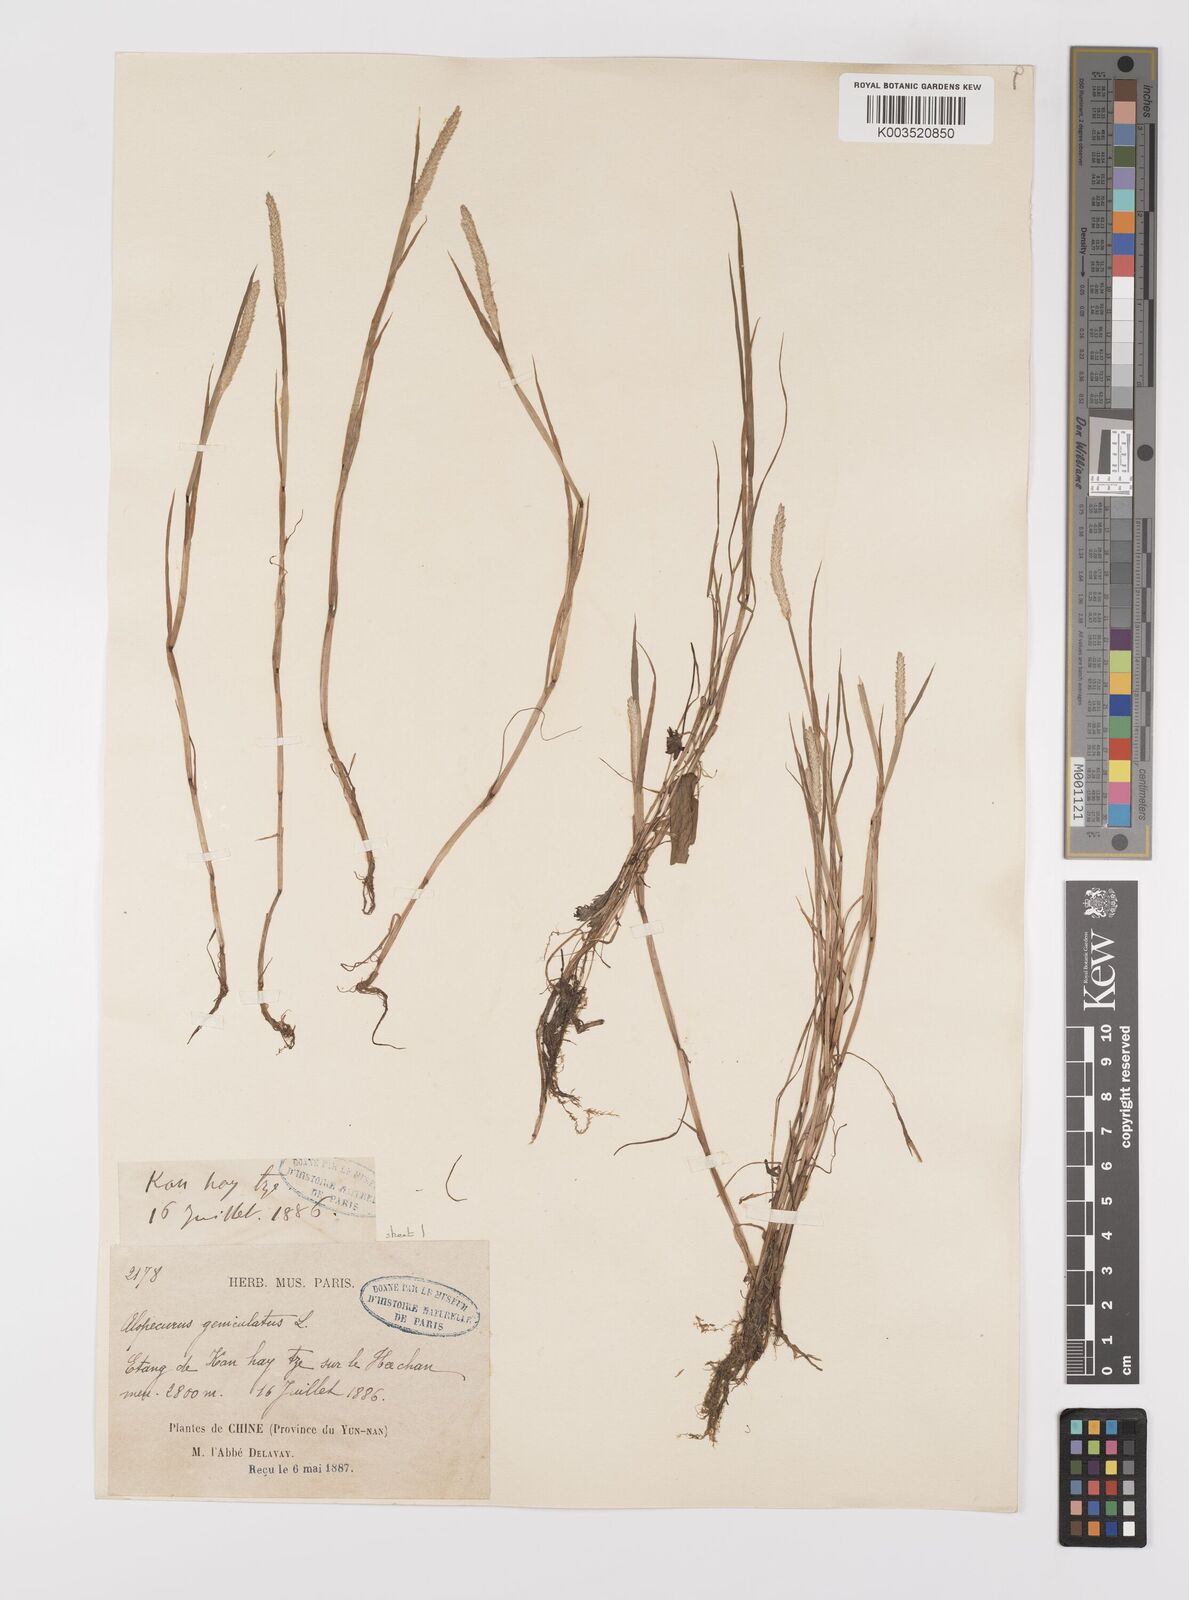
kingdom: Plantae
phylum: Tracheophyta
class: Liliopsida
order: Poales
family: Poaceae
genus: Alopecurus
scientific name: Alopecurus aequalis
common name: Orange foxtail
